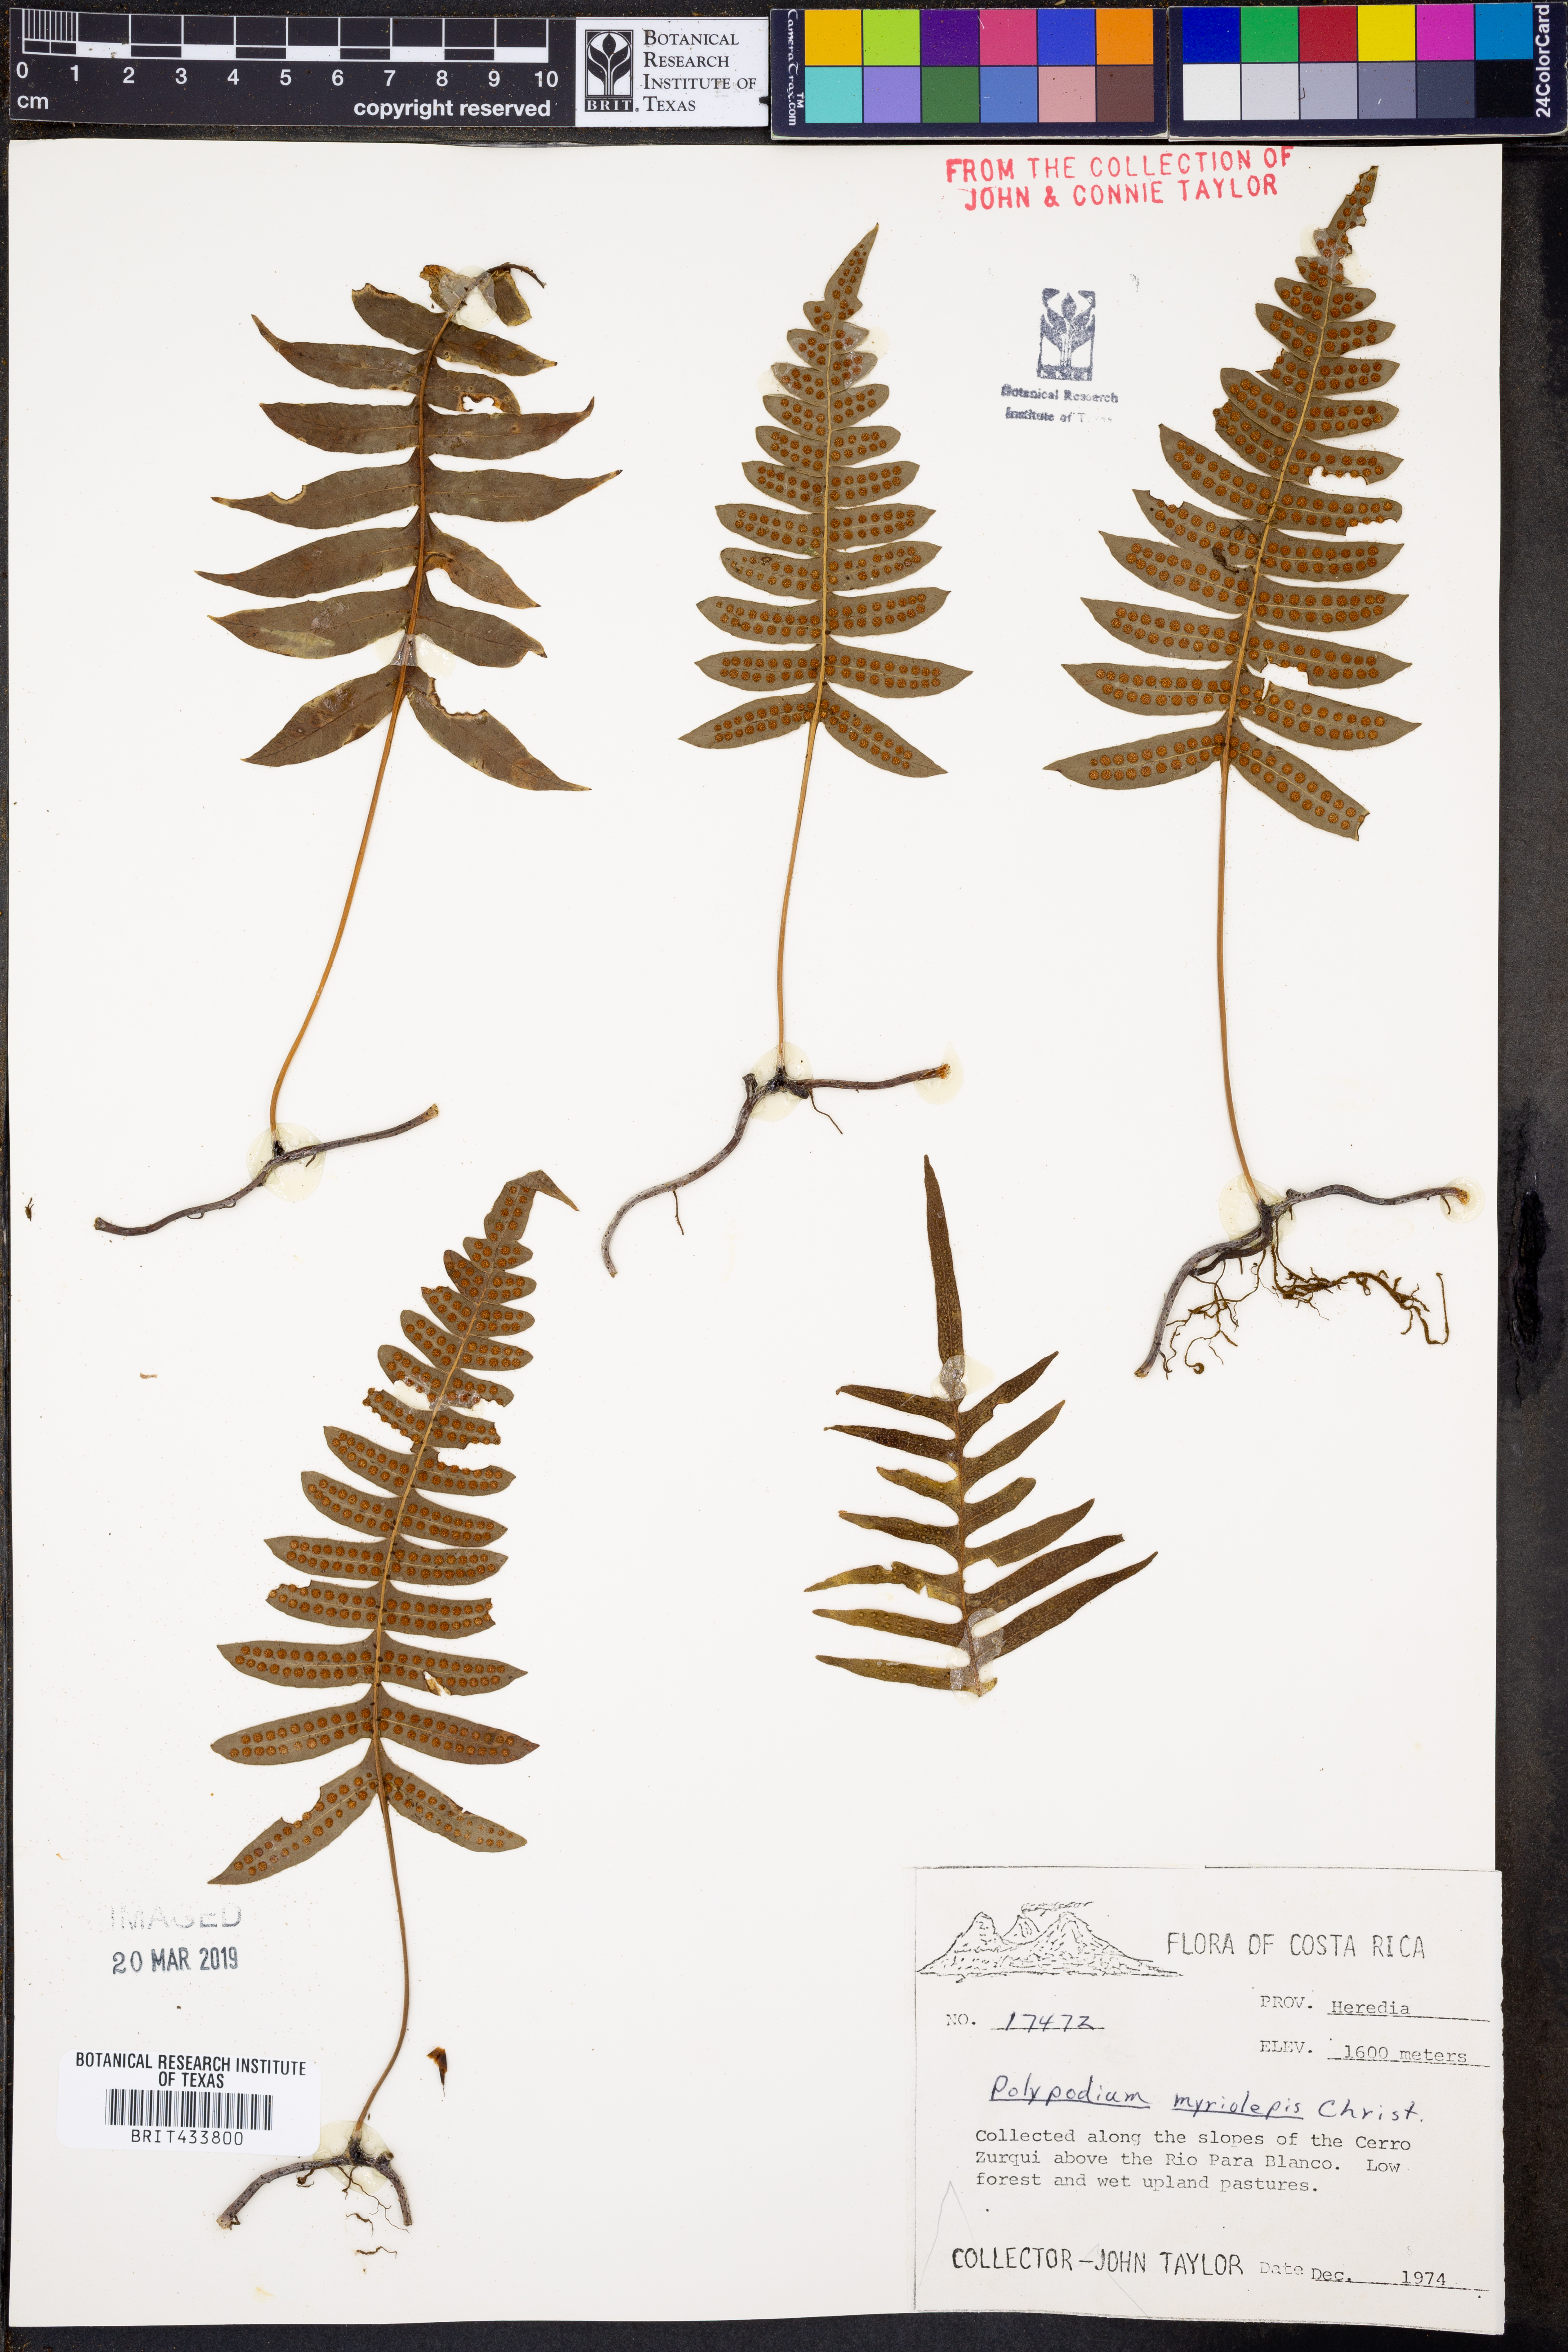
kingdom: Plantae
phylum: Tracheophyta
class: Polypodiopsida
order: Polypodiales
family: Polypodiaceae
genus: Pleopeltis
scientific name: Pleopeltis myriolepis
